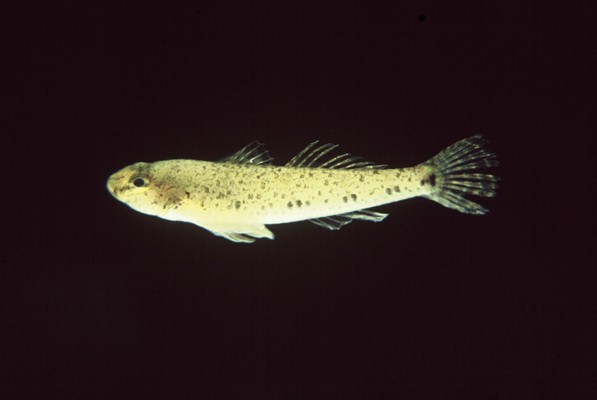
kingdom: Animalia
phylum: Chordata
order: Perciformes
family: Gobiidae
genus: Awaous
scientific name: Awaous aeneofuscus
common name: Freshwater goby
